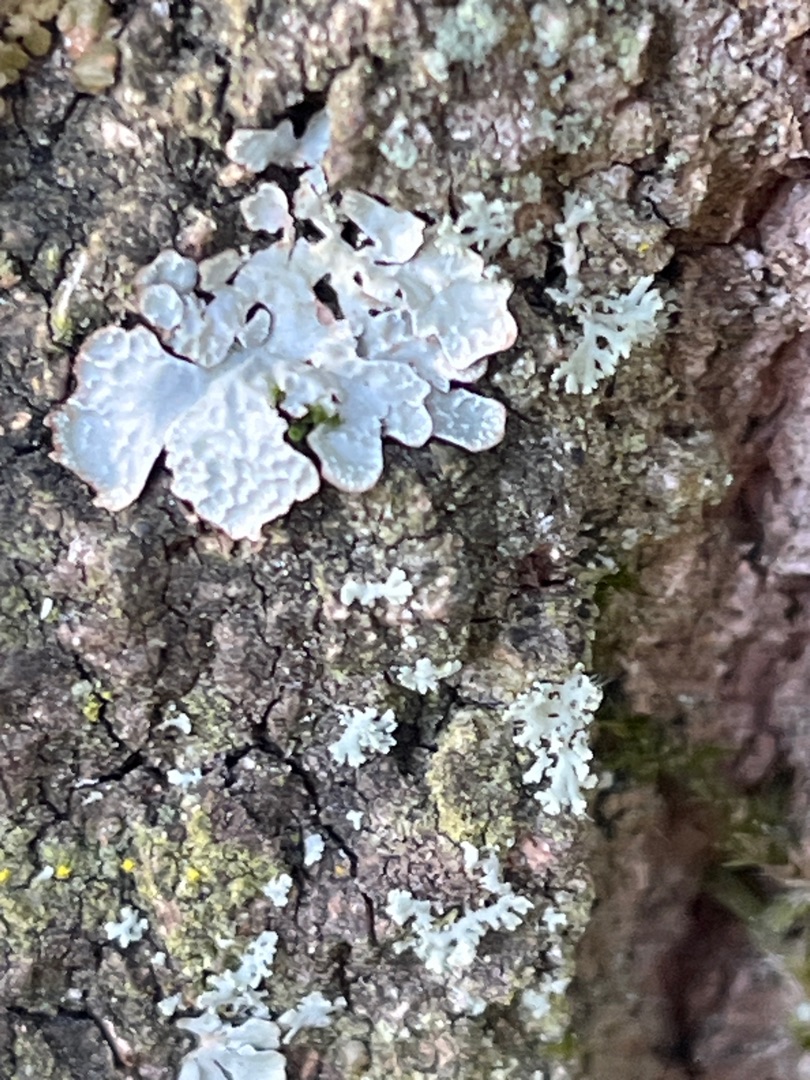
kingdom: Fungi
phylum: Ascomycota
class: Lecanoromycetes
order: Lecanorales
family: Parmeliaceae
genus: Parmelia
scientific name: Parmelia sulcata
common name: Rynket skållav
